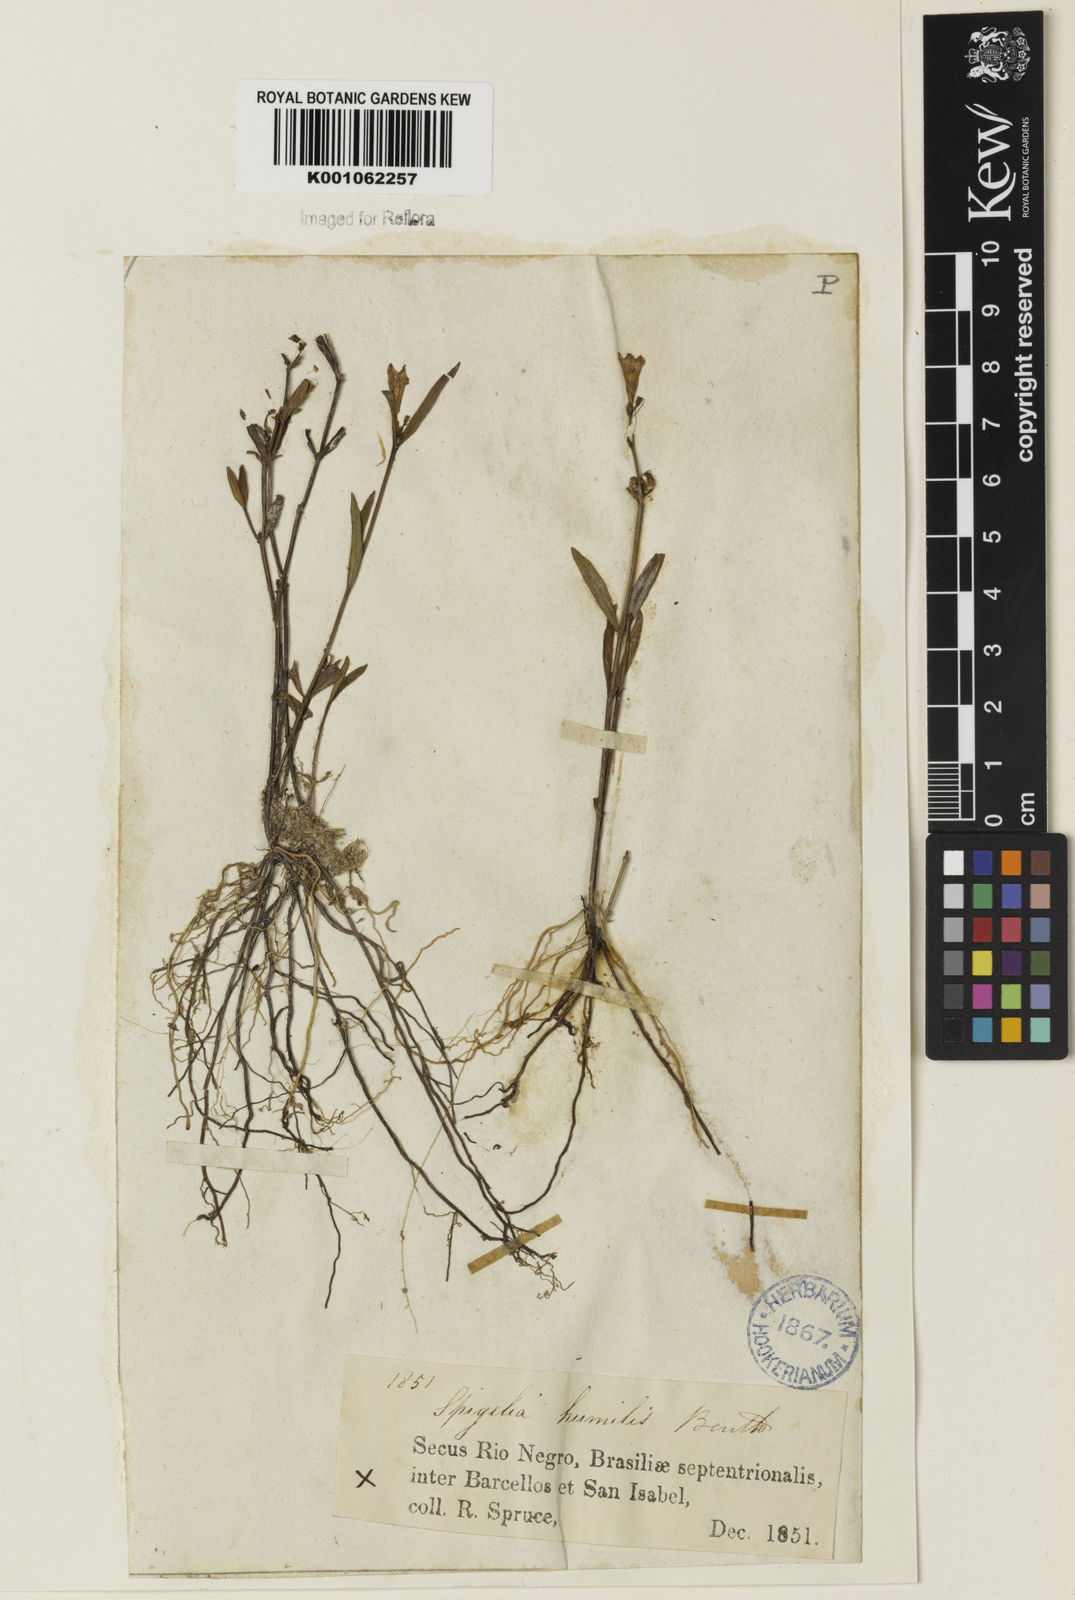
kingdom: Plantae
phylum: Tracheophyta
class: Magnoliopsida
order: Gentianales
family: Loganiaceae
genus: Spigelia
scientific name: Spigelia
